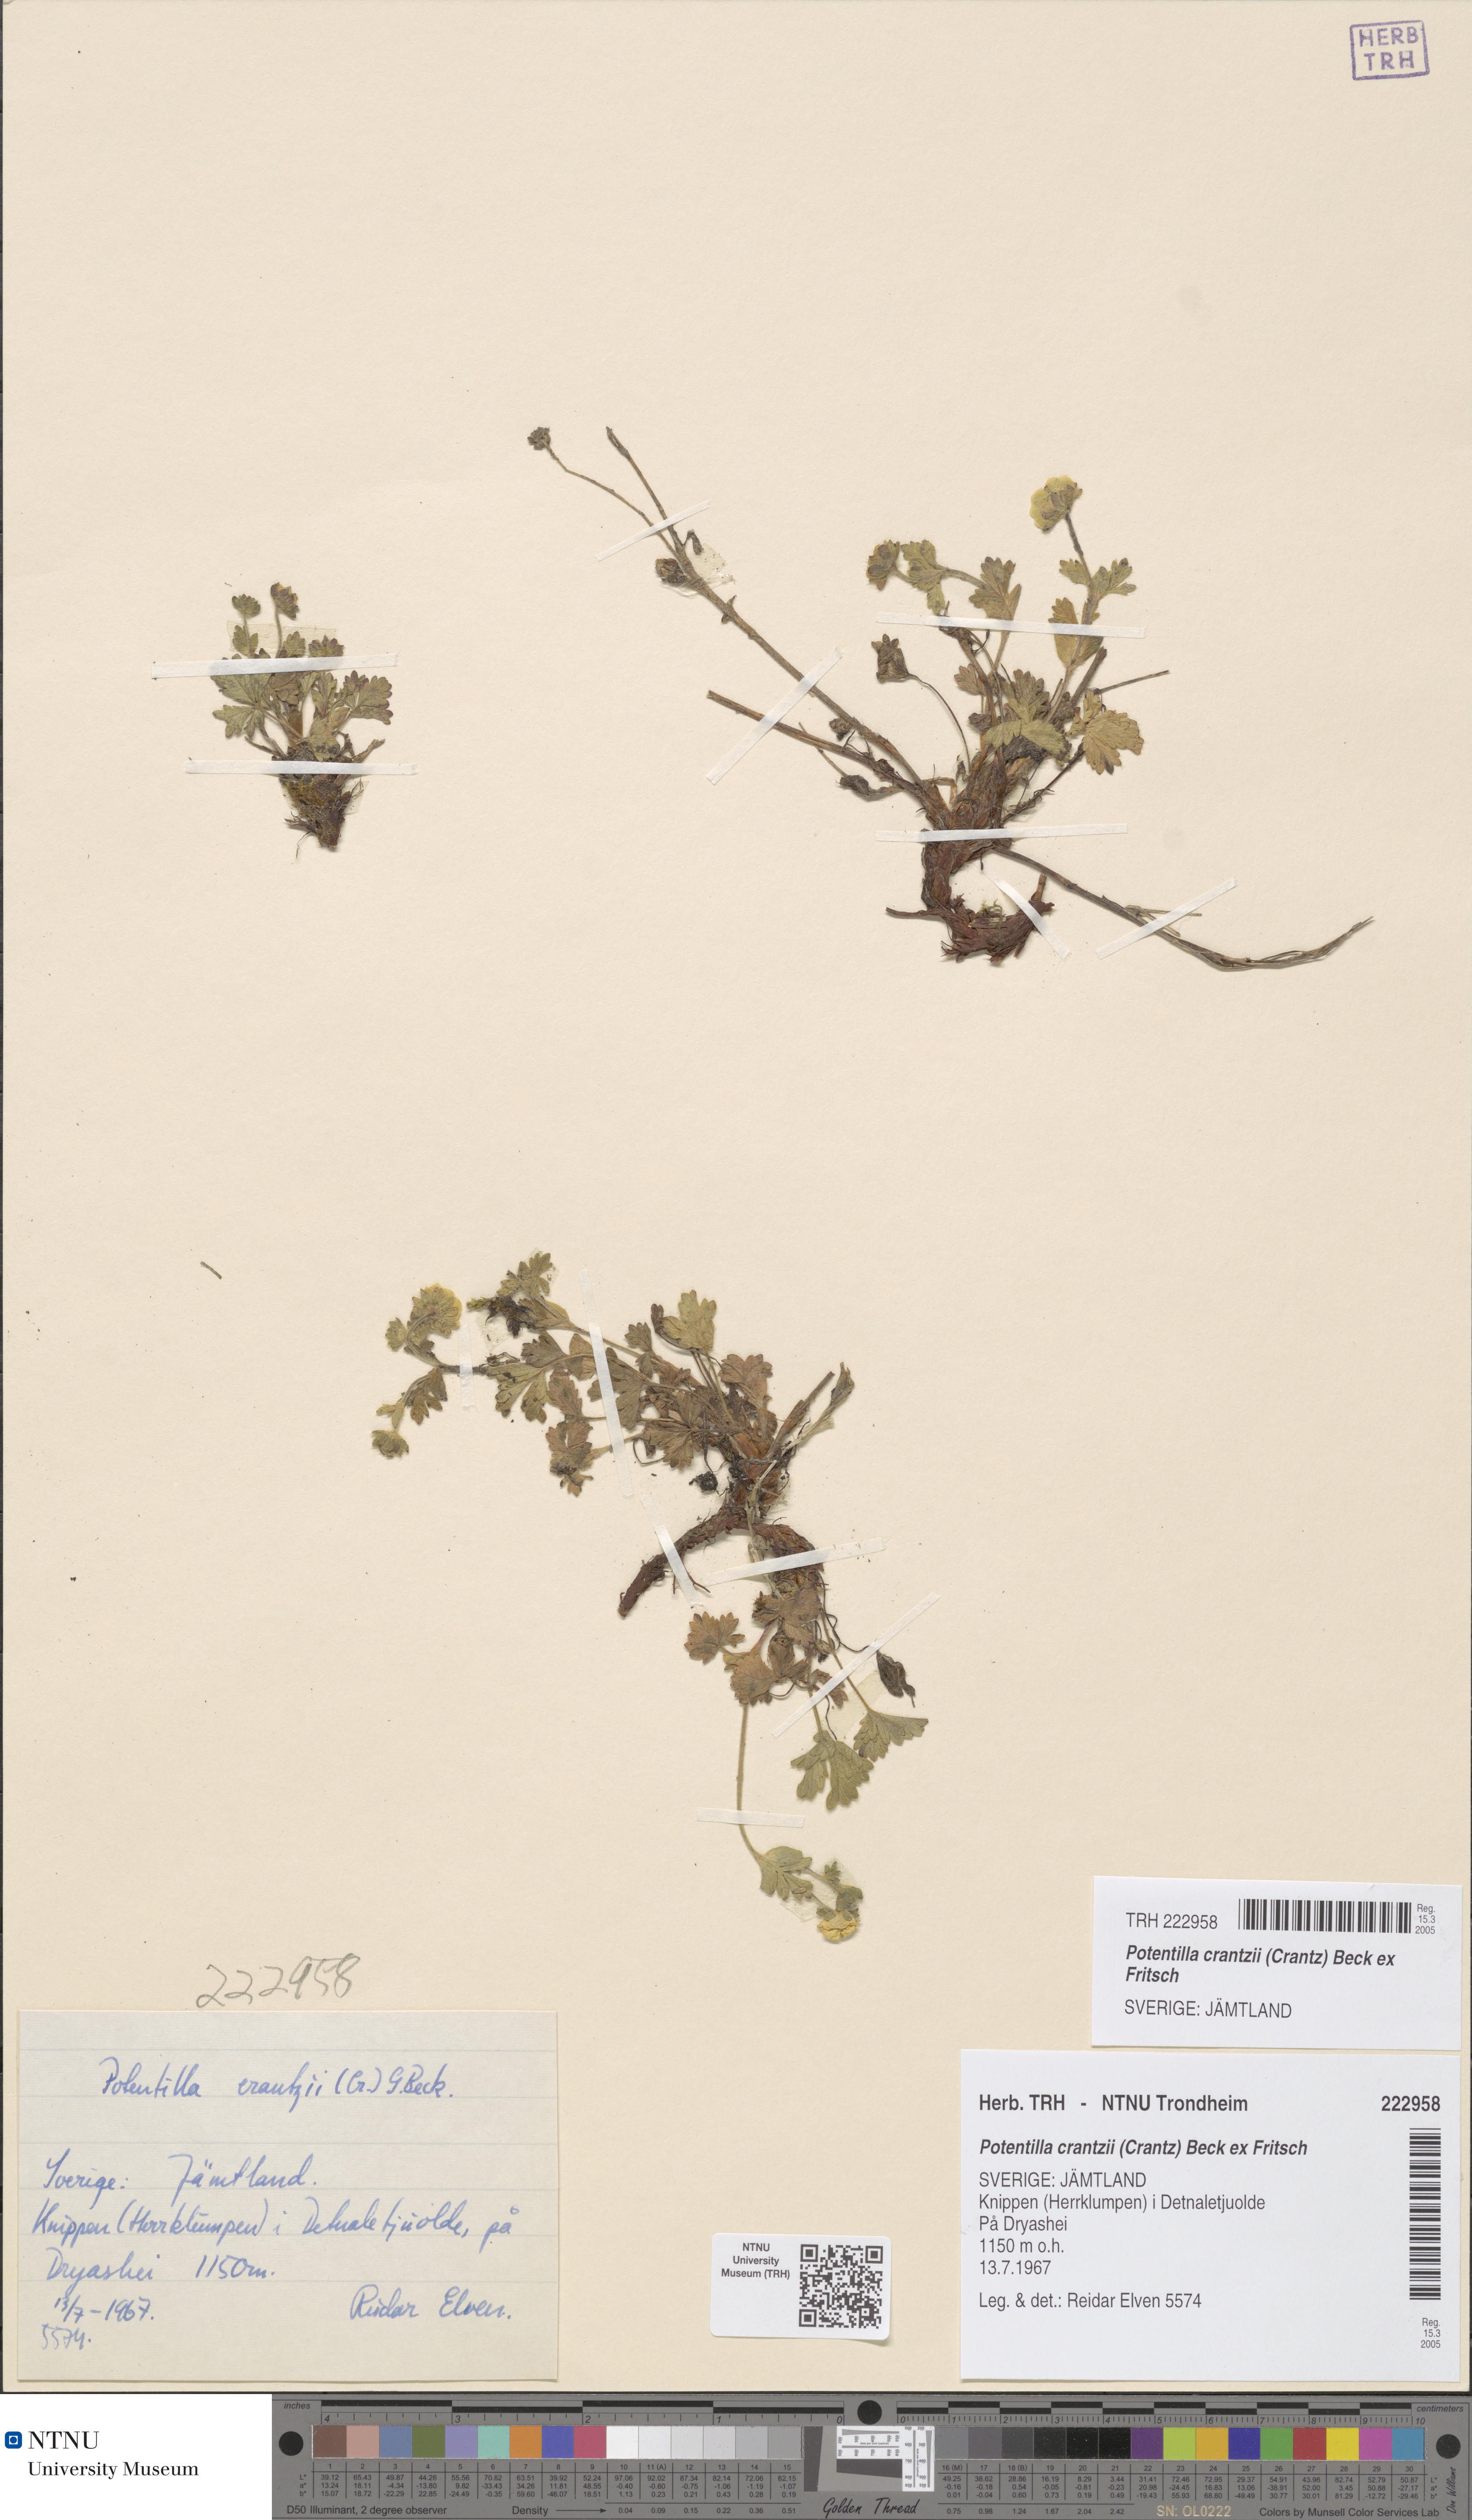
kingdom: Plantae
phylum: Tracheophyta
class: Magnoliopsida
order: Rosales
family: Rosaceae
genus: Potentilla
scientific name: Potentilla crantzii
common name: Alpine cinquefoil
